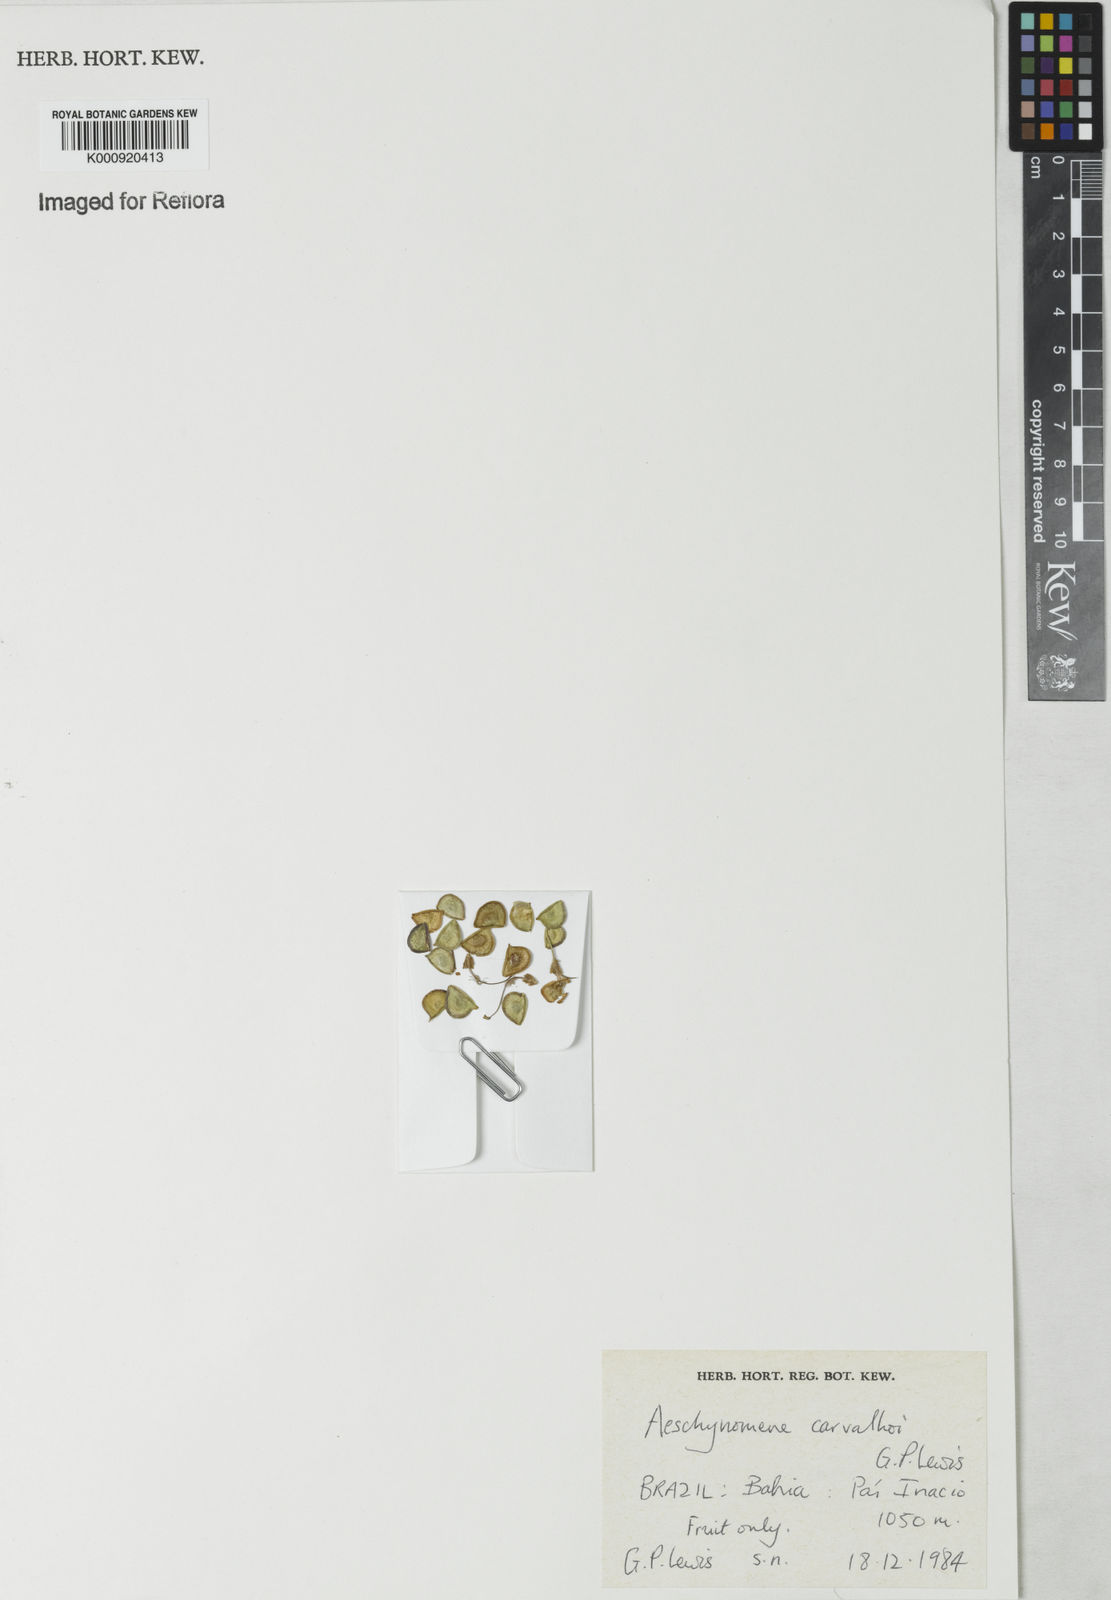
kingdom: Plantae
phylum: Tracheophyta
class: Magnoliopsida
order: Fabales
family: Fabaceae
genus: Ctenodon
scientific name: Ctenodon carvalhoi
